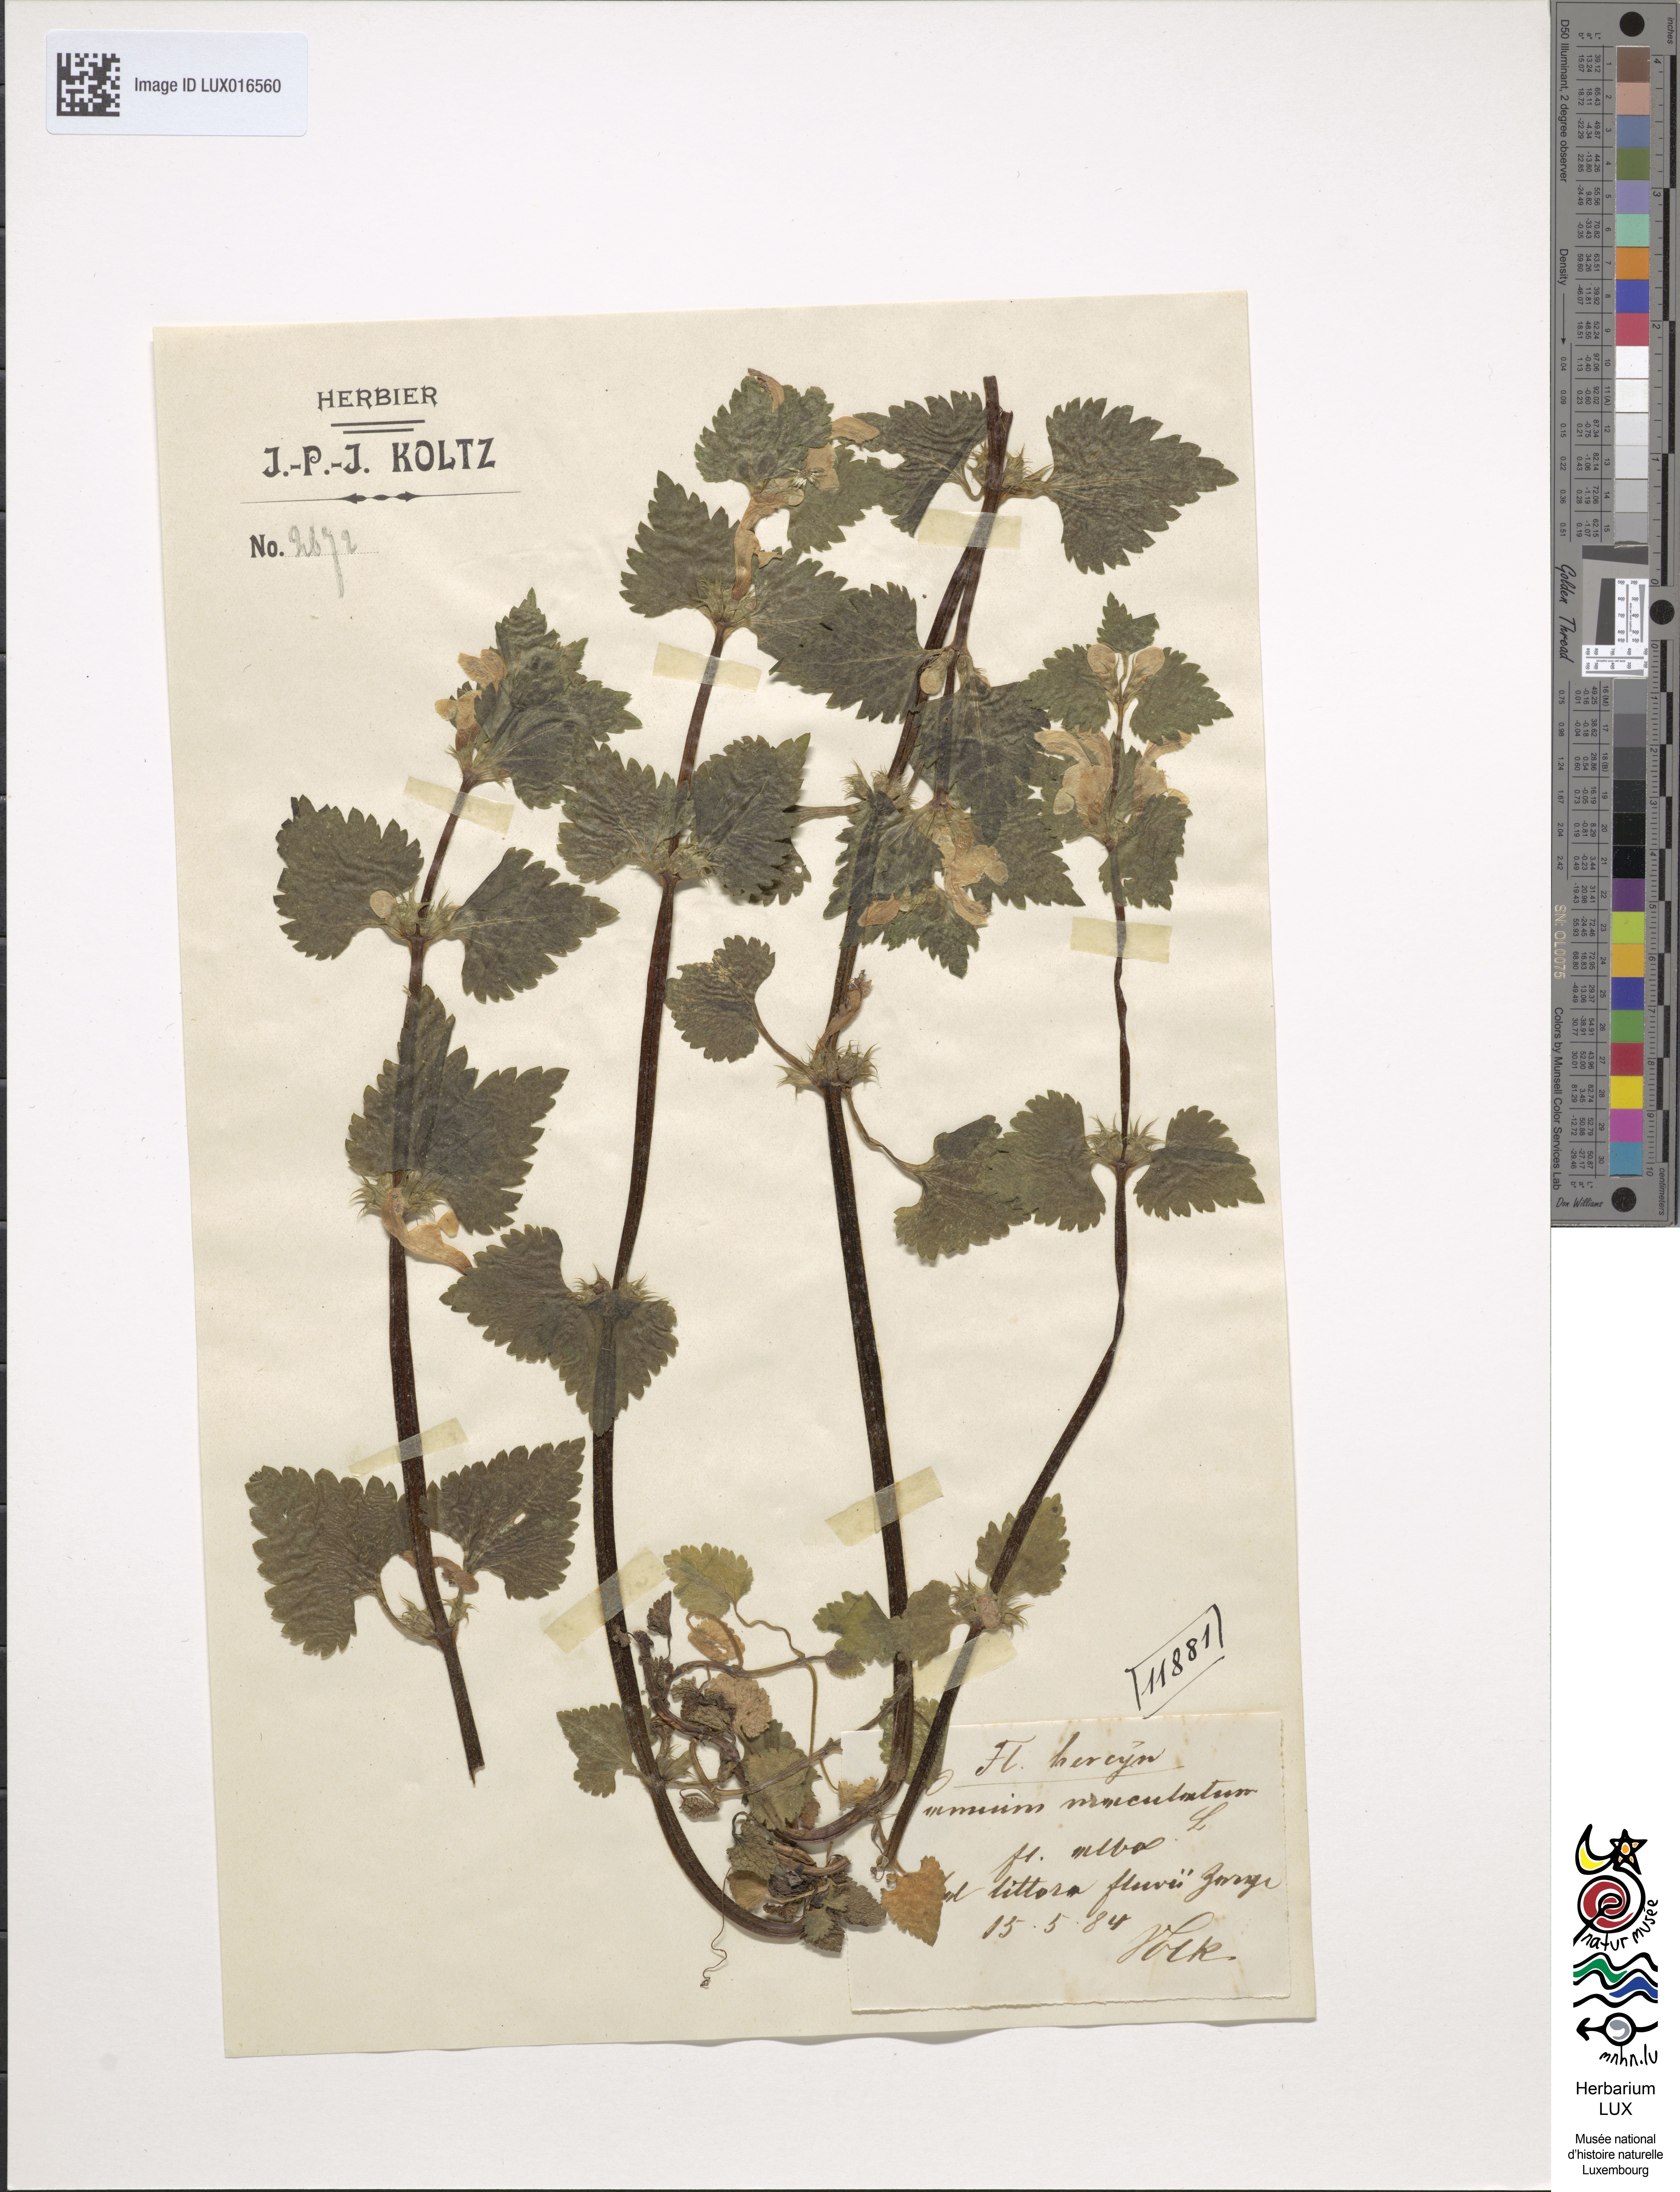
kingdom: Plantae
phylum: Tracheophyta
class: Magnoliopsida
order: Lamiales
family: Lamiaceae
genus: Lamium
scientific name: Lamium maculatum
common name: Spotted dead-nettle
